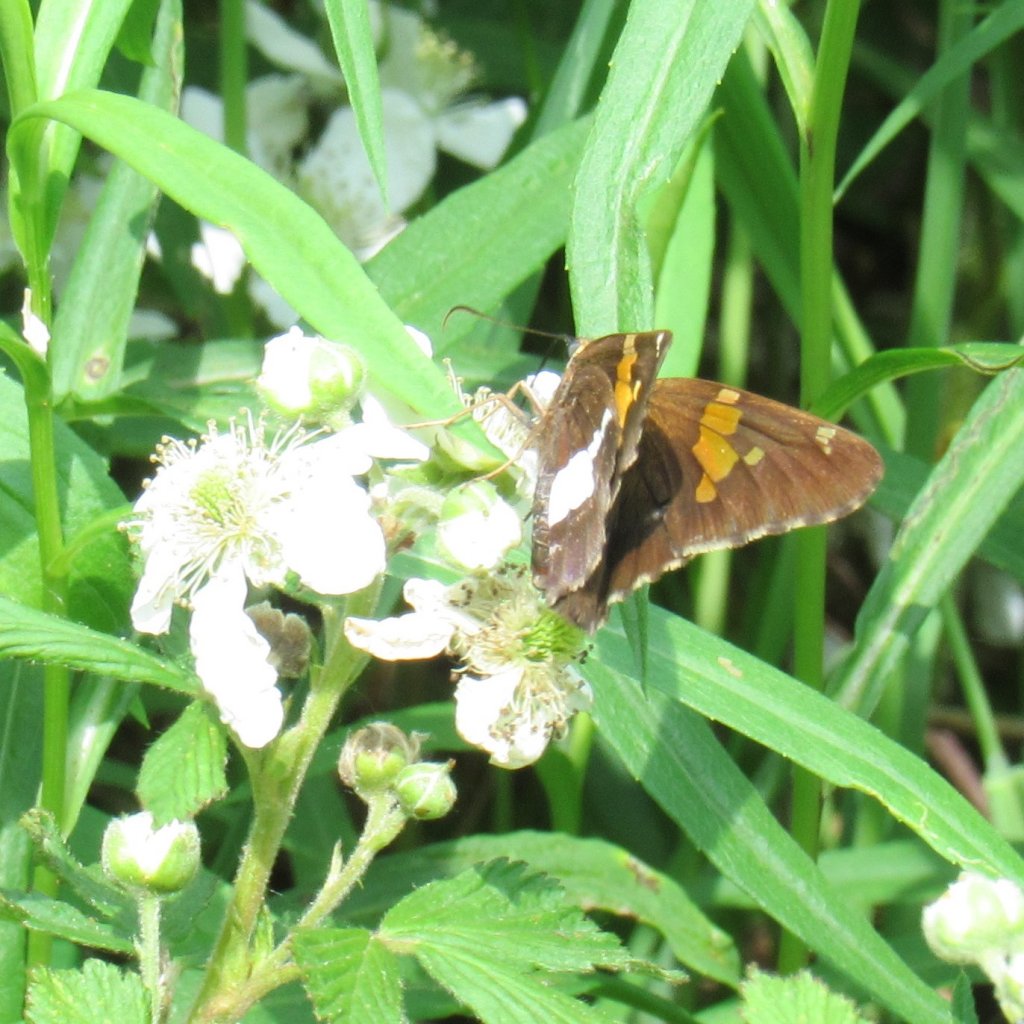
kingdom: Animalia
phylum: Arthropoda
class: Insecta
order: Lepidoptera
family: Hesperiidae
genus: Epargyreus
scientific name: Epargyreus clarus
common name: Silver-spotted Skipper
